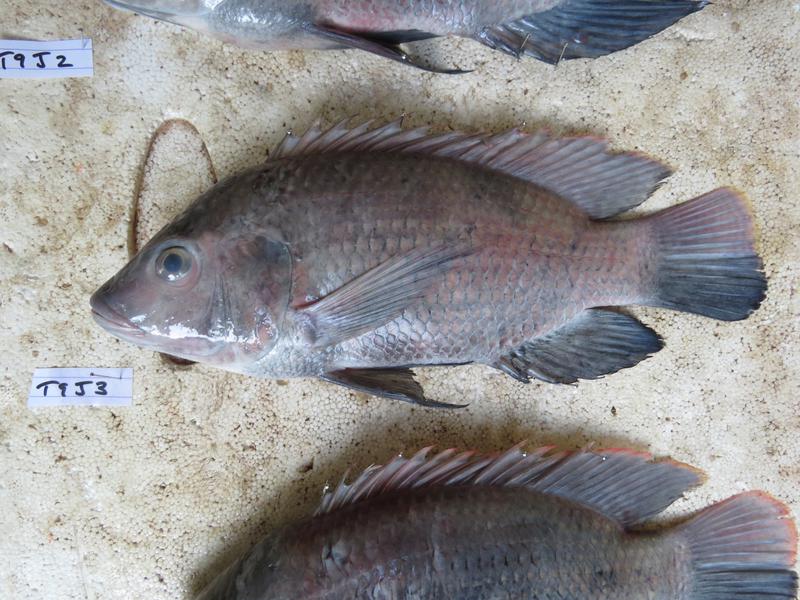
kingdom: Animalia
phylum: Chordata
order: Perciformes
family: Cichlidae
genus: Oreochromis
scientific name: Oreochromis urolepis
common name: Wami tilapia
